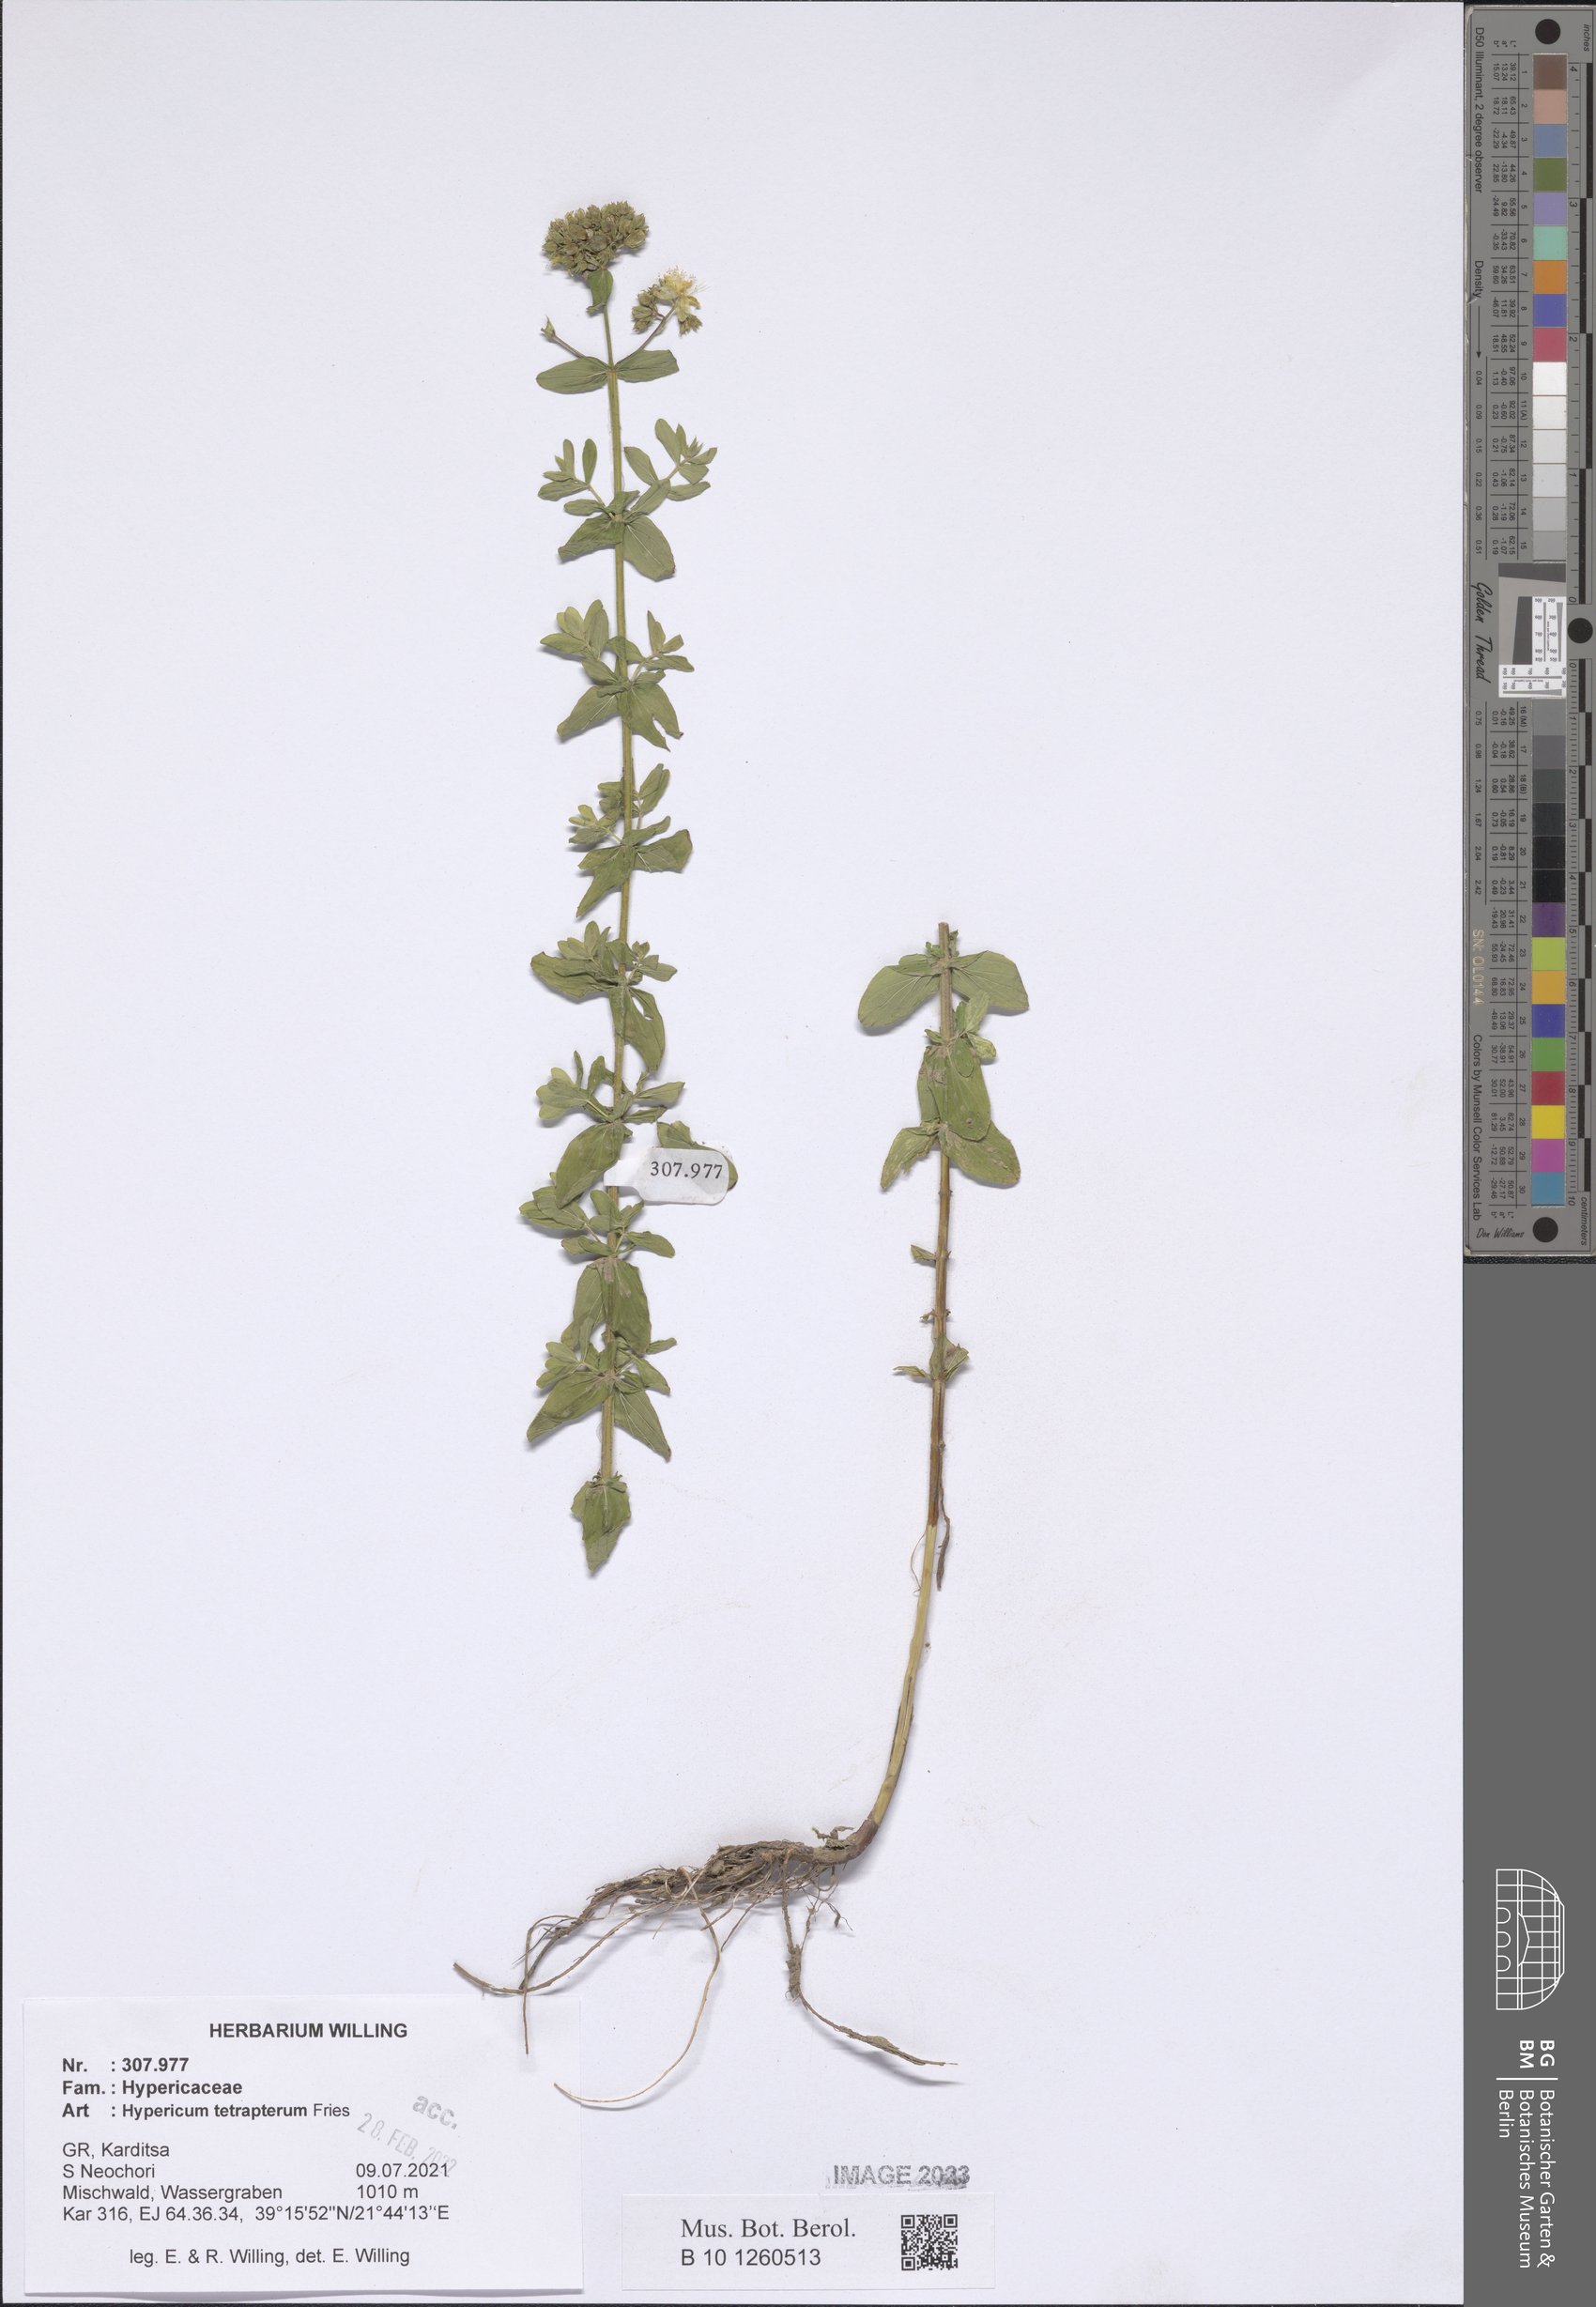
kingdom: Plantae
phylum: Tracheophyta
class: Magnoliopsida
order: Malpighiales
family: Hypericaceae
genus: Hypericum
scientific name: Hypericum tetrapterum
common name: Square-stalked st. john's-wort
